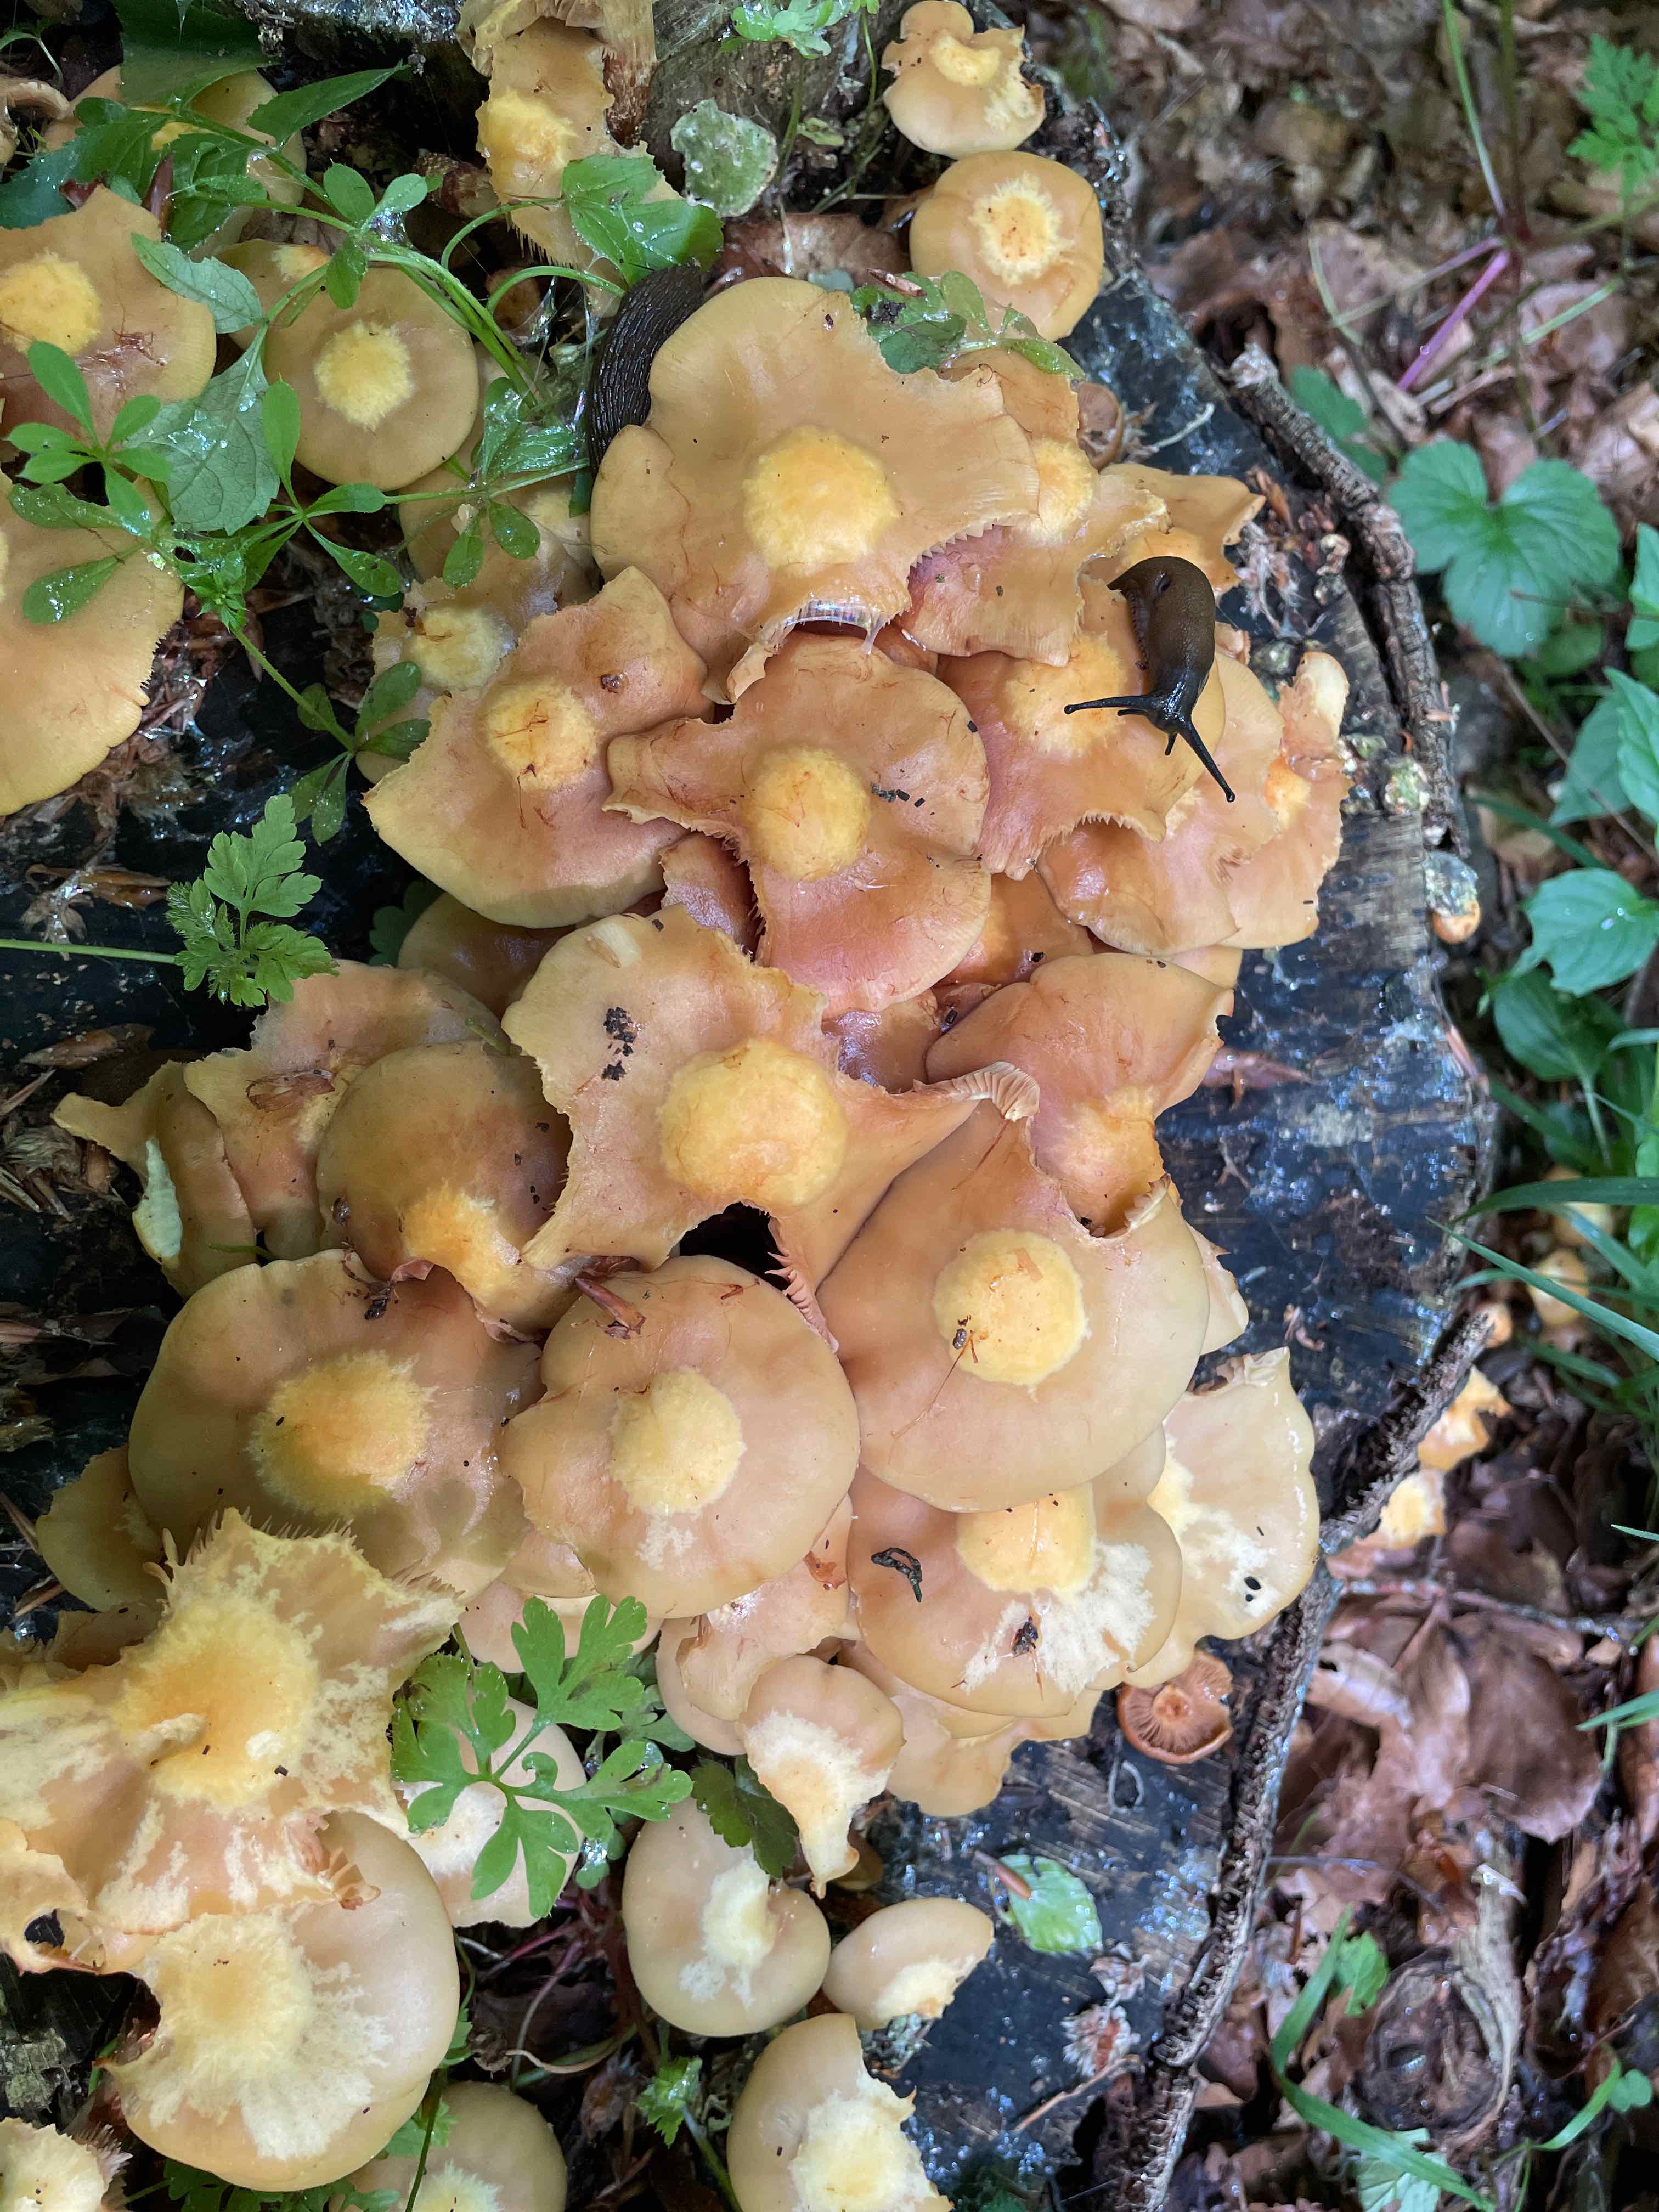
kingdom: Fungi
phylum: Basidiomycota
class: Agaricomycetes
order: Agaricales
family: Strophariaceae
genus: Kuehneromyces
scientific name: Kuehneromyces mutabilis
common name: foranderlig skælhat
